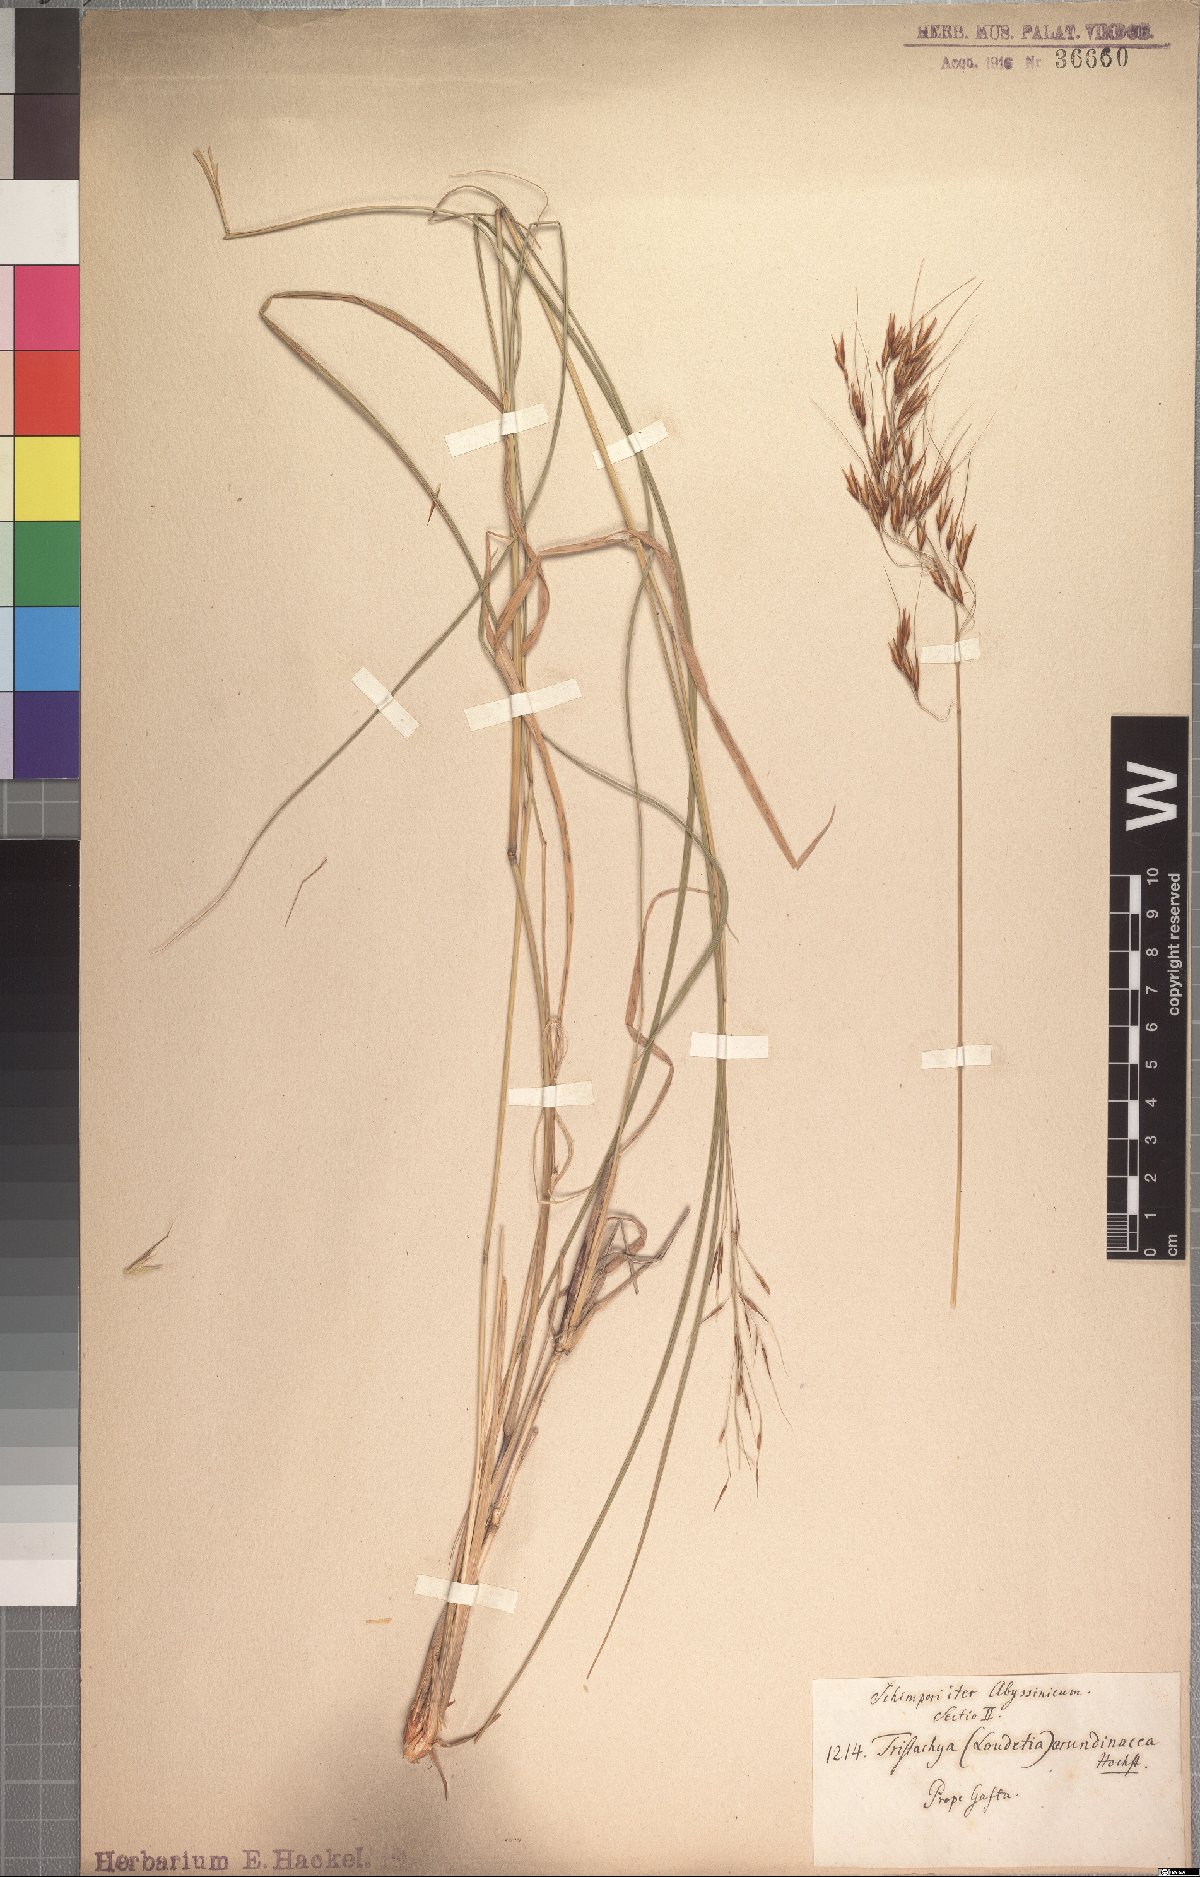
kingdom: Plantae
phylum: Tracheophyta
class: Liliopsida
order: Poales
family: Poaceae
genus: Loudetia
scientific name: Loudetia arundinacea
